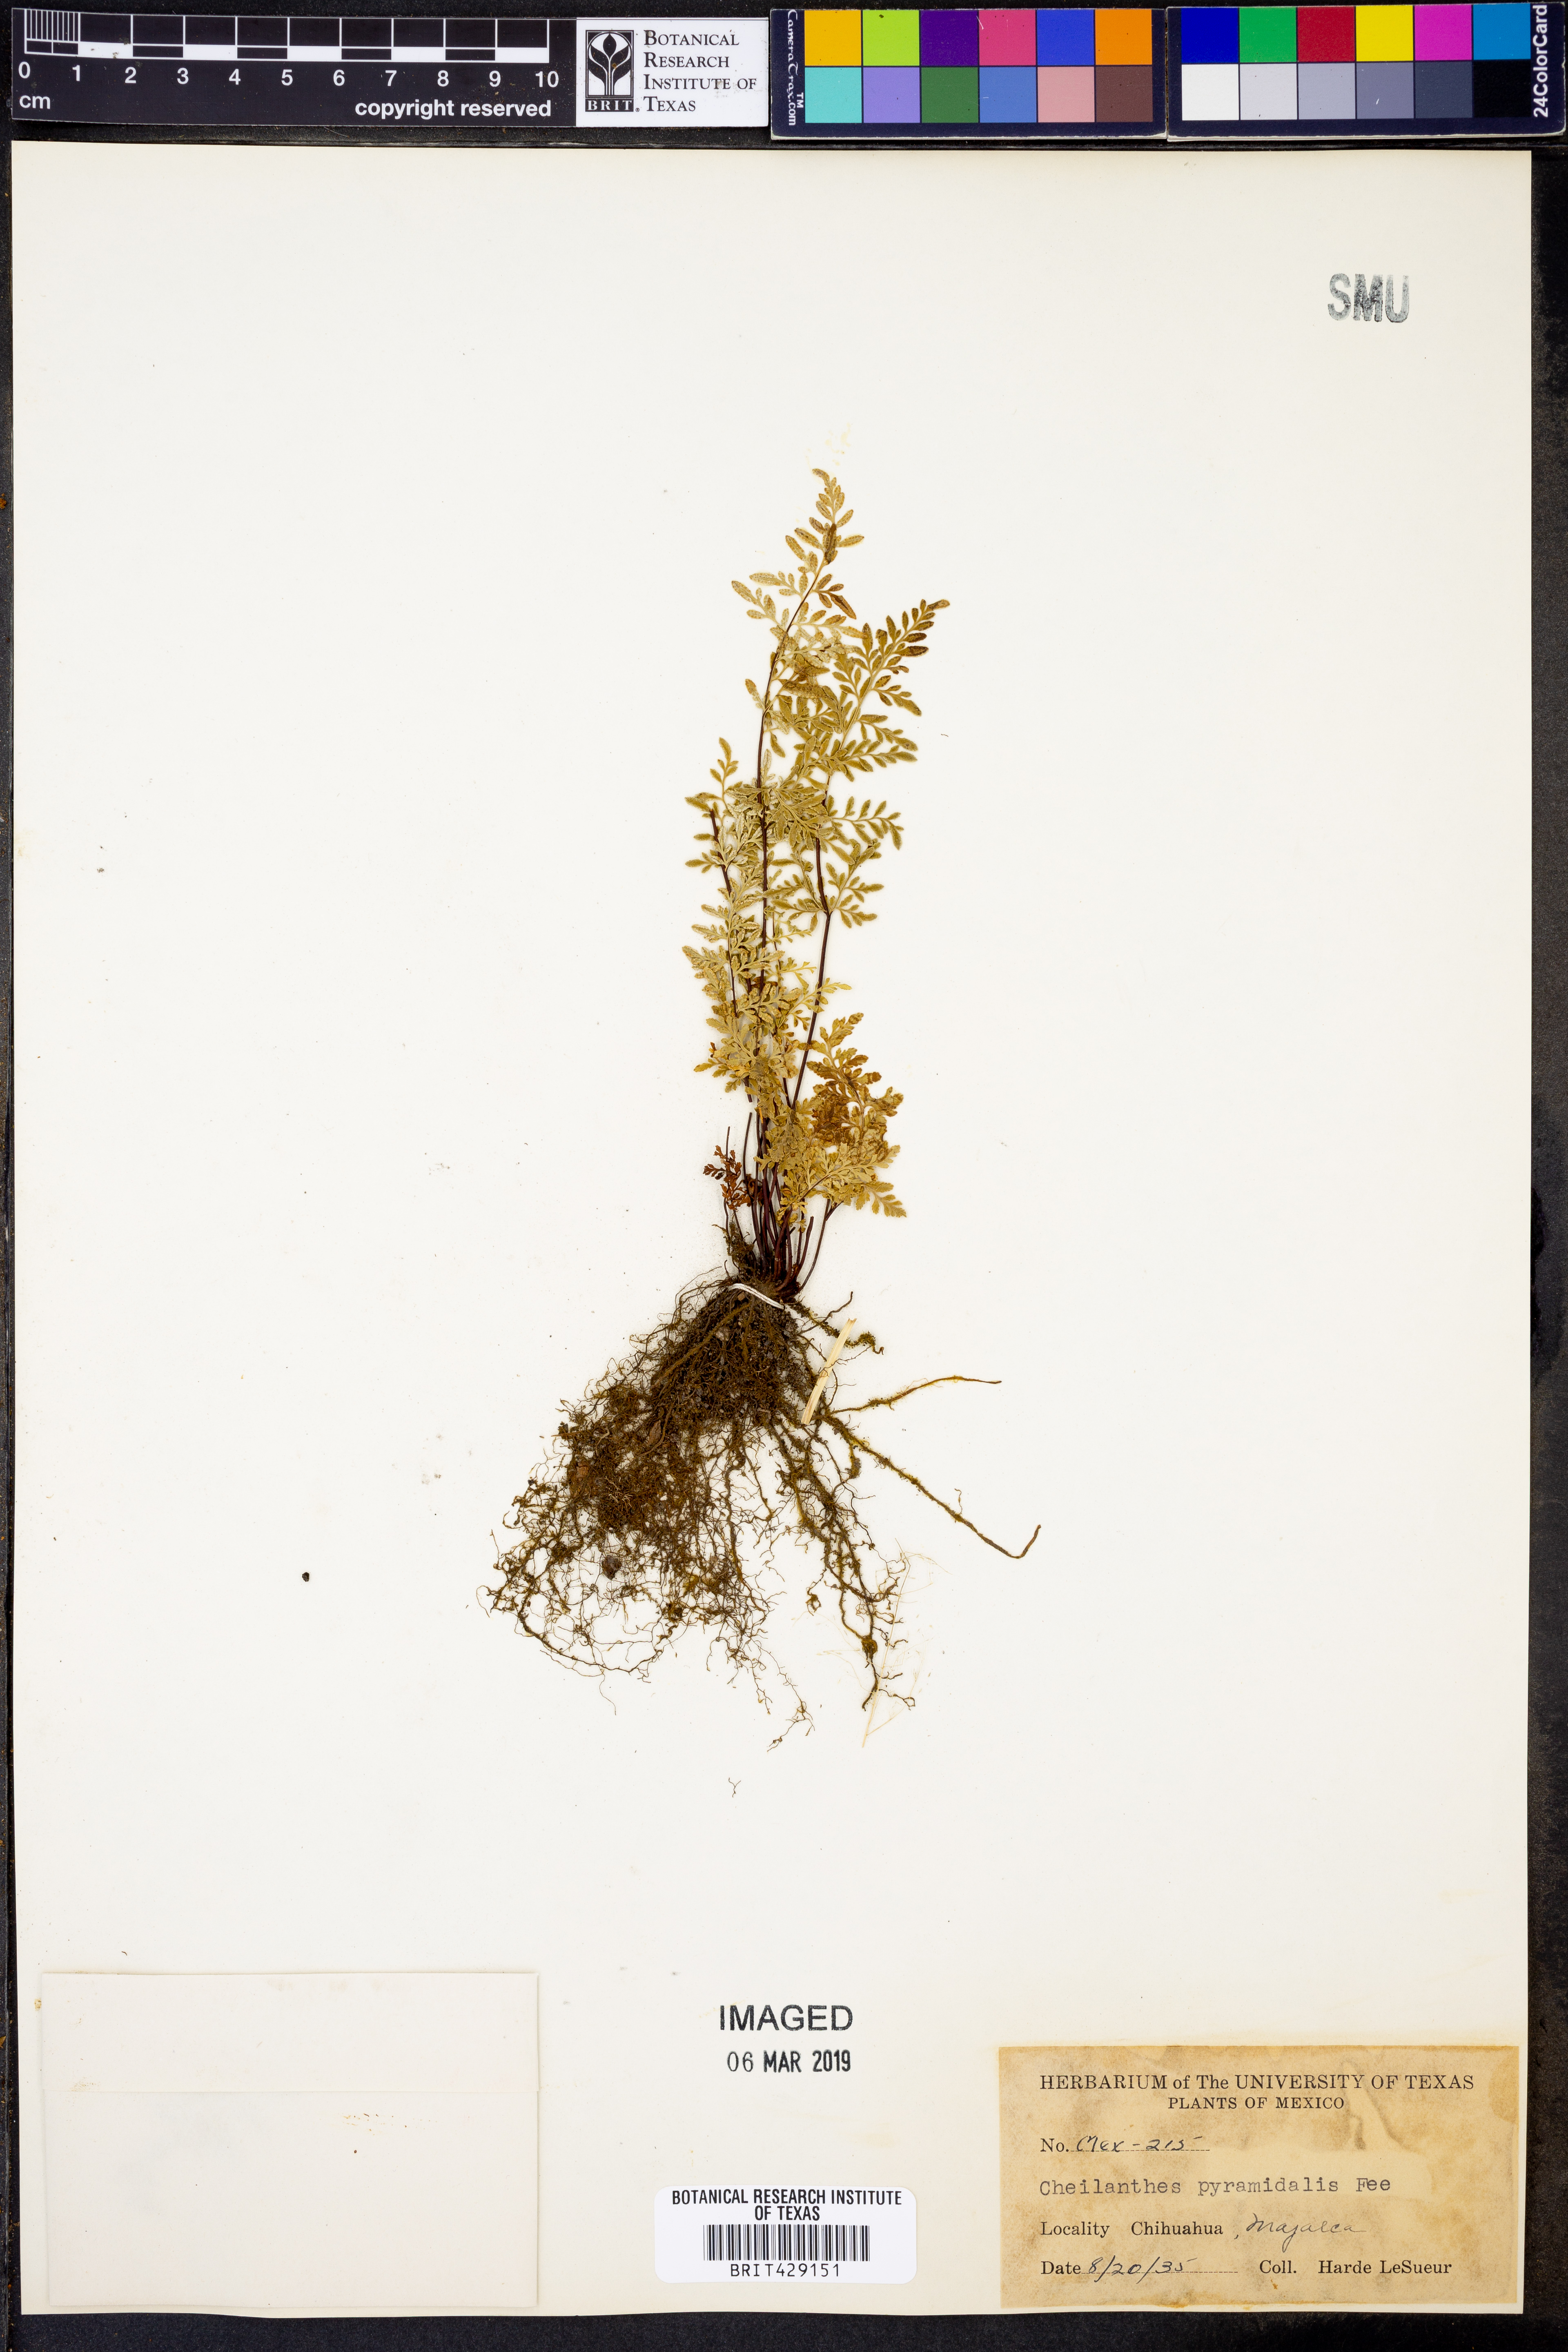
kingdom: Plantae
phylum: Tracheophyta
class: Polypodiopsida
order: Polypodiales
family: Pteridaceae
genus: Gaga
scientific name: Gaga hirsuta
